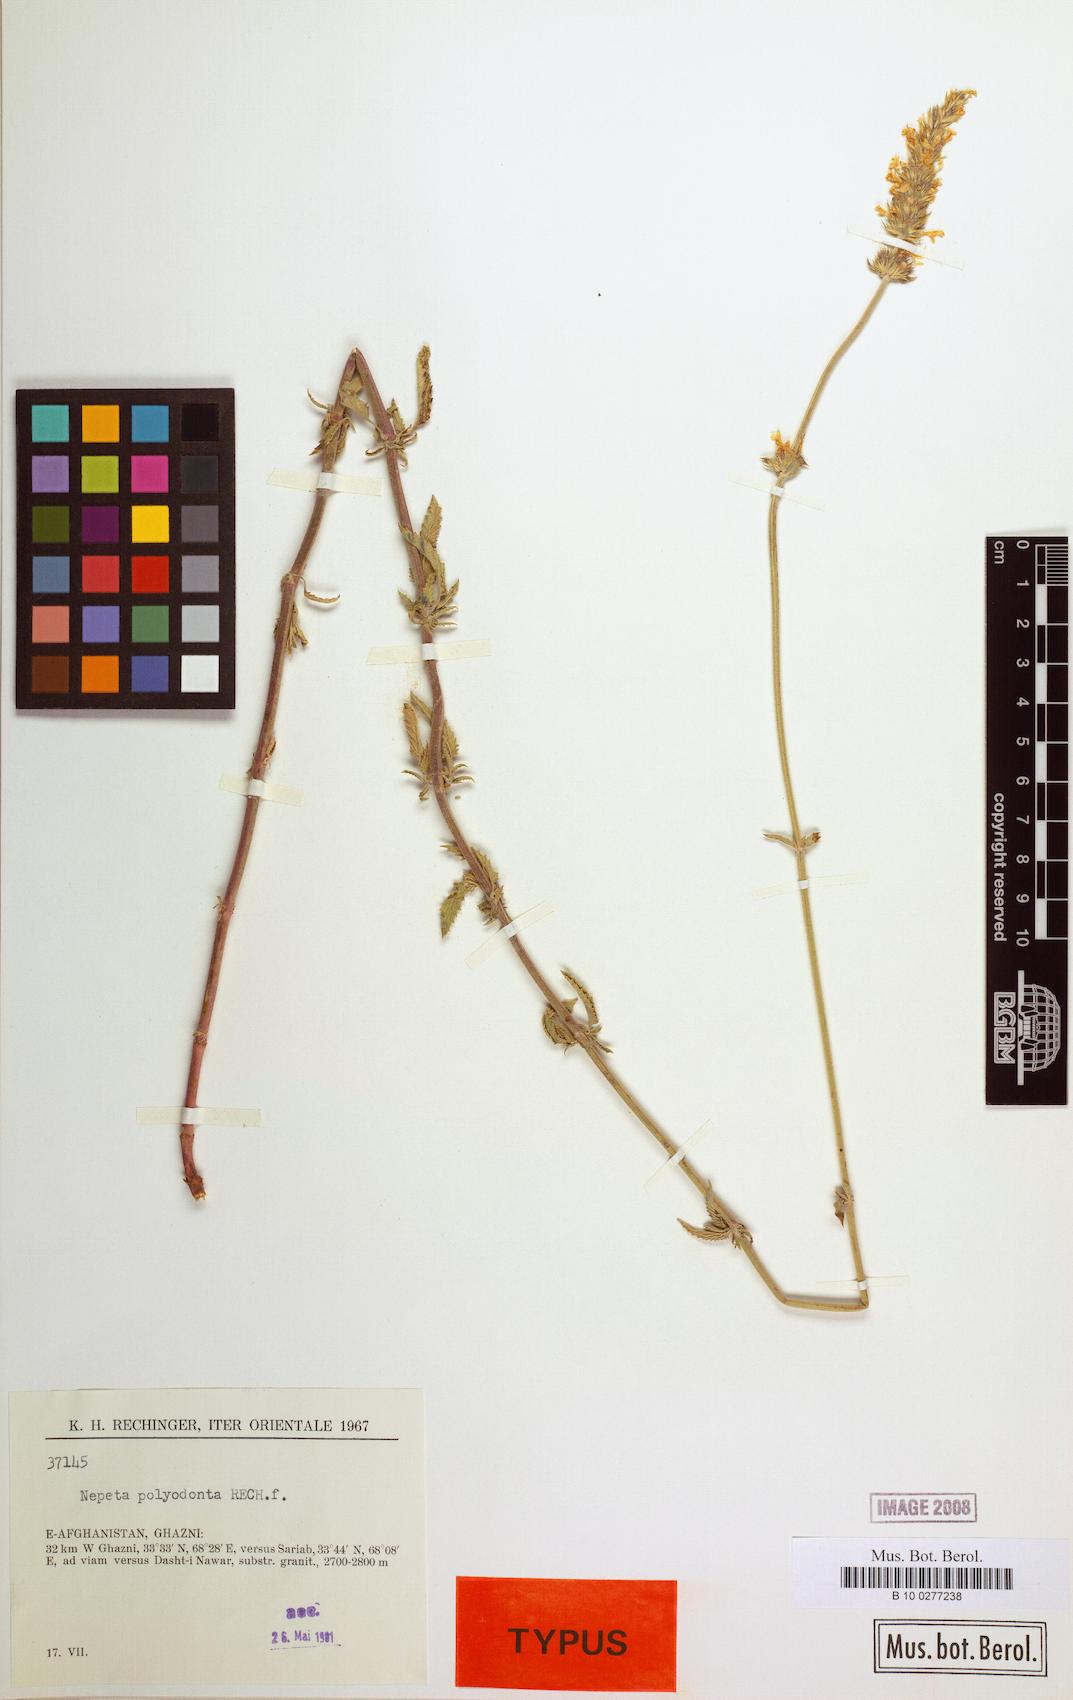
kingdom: Plantae
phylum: Tracheophyta
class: Magnoliopsida
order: Lamiales
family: Lamiaceae
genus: Nepeta
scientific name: Nepeta polyodonta
